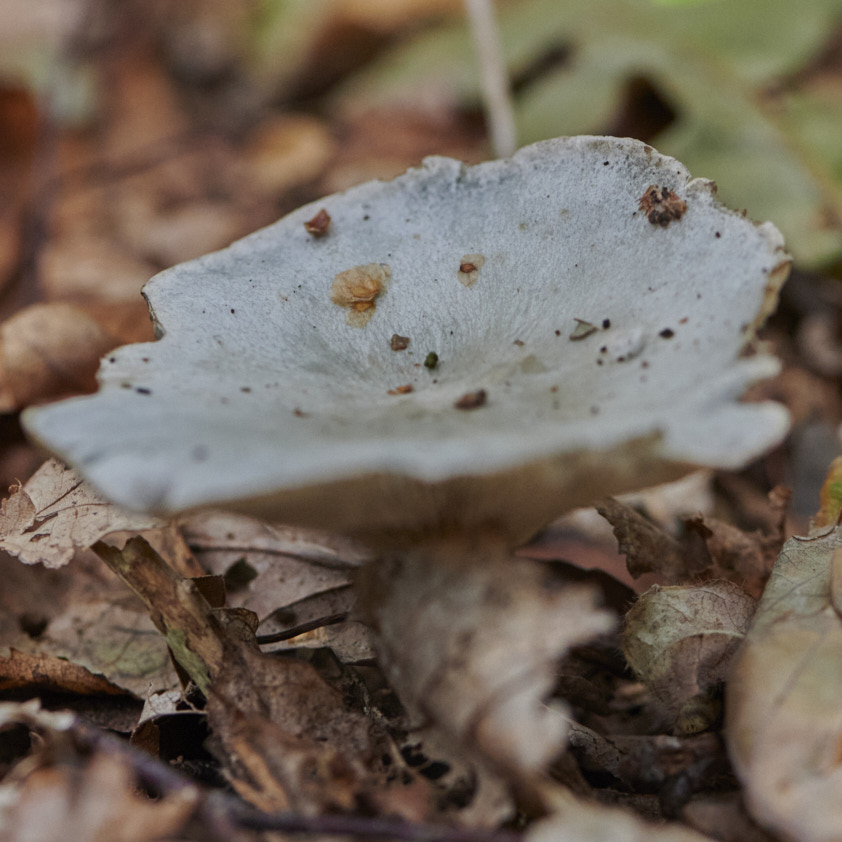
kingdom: Fungi
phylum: Basidiomycota
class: Agaricomycetes
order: Agaricales
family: Tricholomataceae
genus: Clitocybe
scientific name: Clitocybe odora
